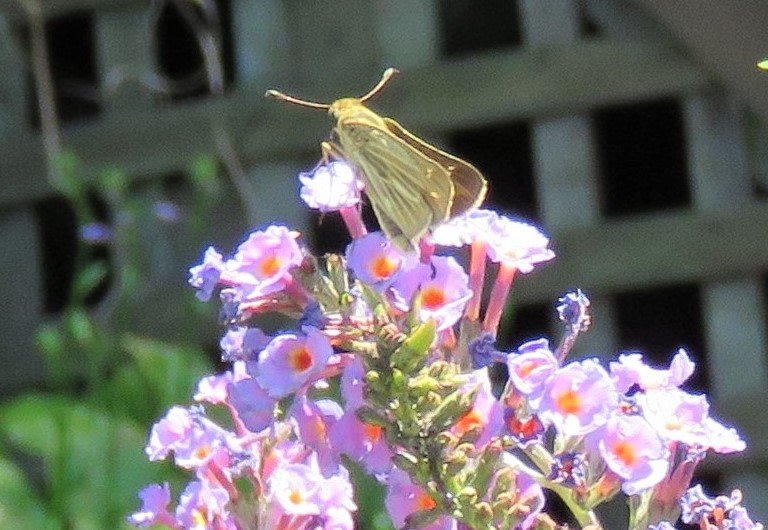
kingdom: Animalia
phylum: Arthropoda
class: Insecta
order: Lepidoptera
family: Hesperiidae
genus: Panoquina
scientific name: Panoquina panoquin
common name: Salt Marsh Skipper
